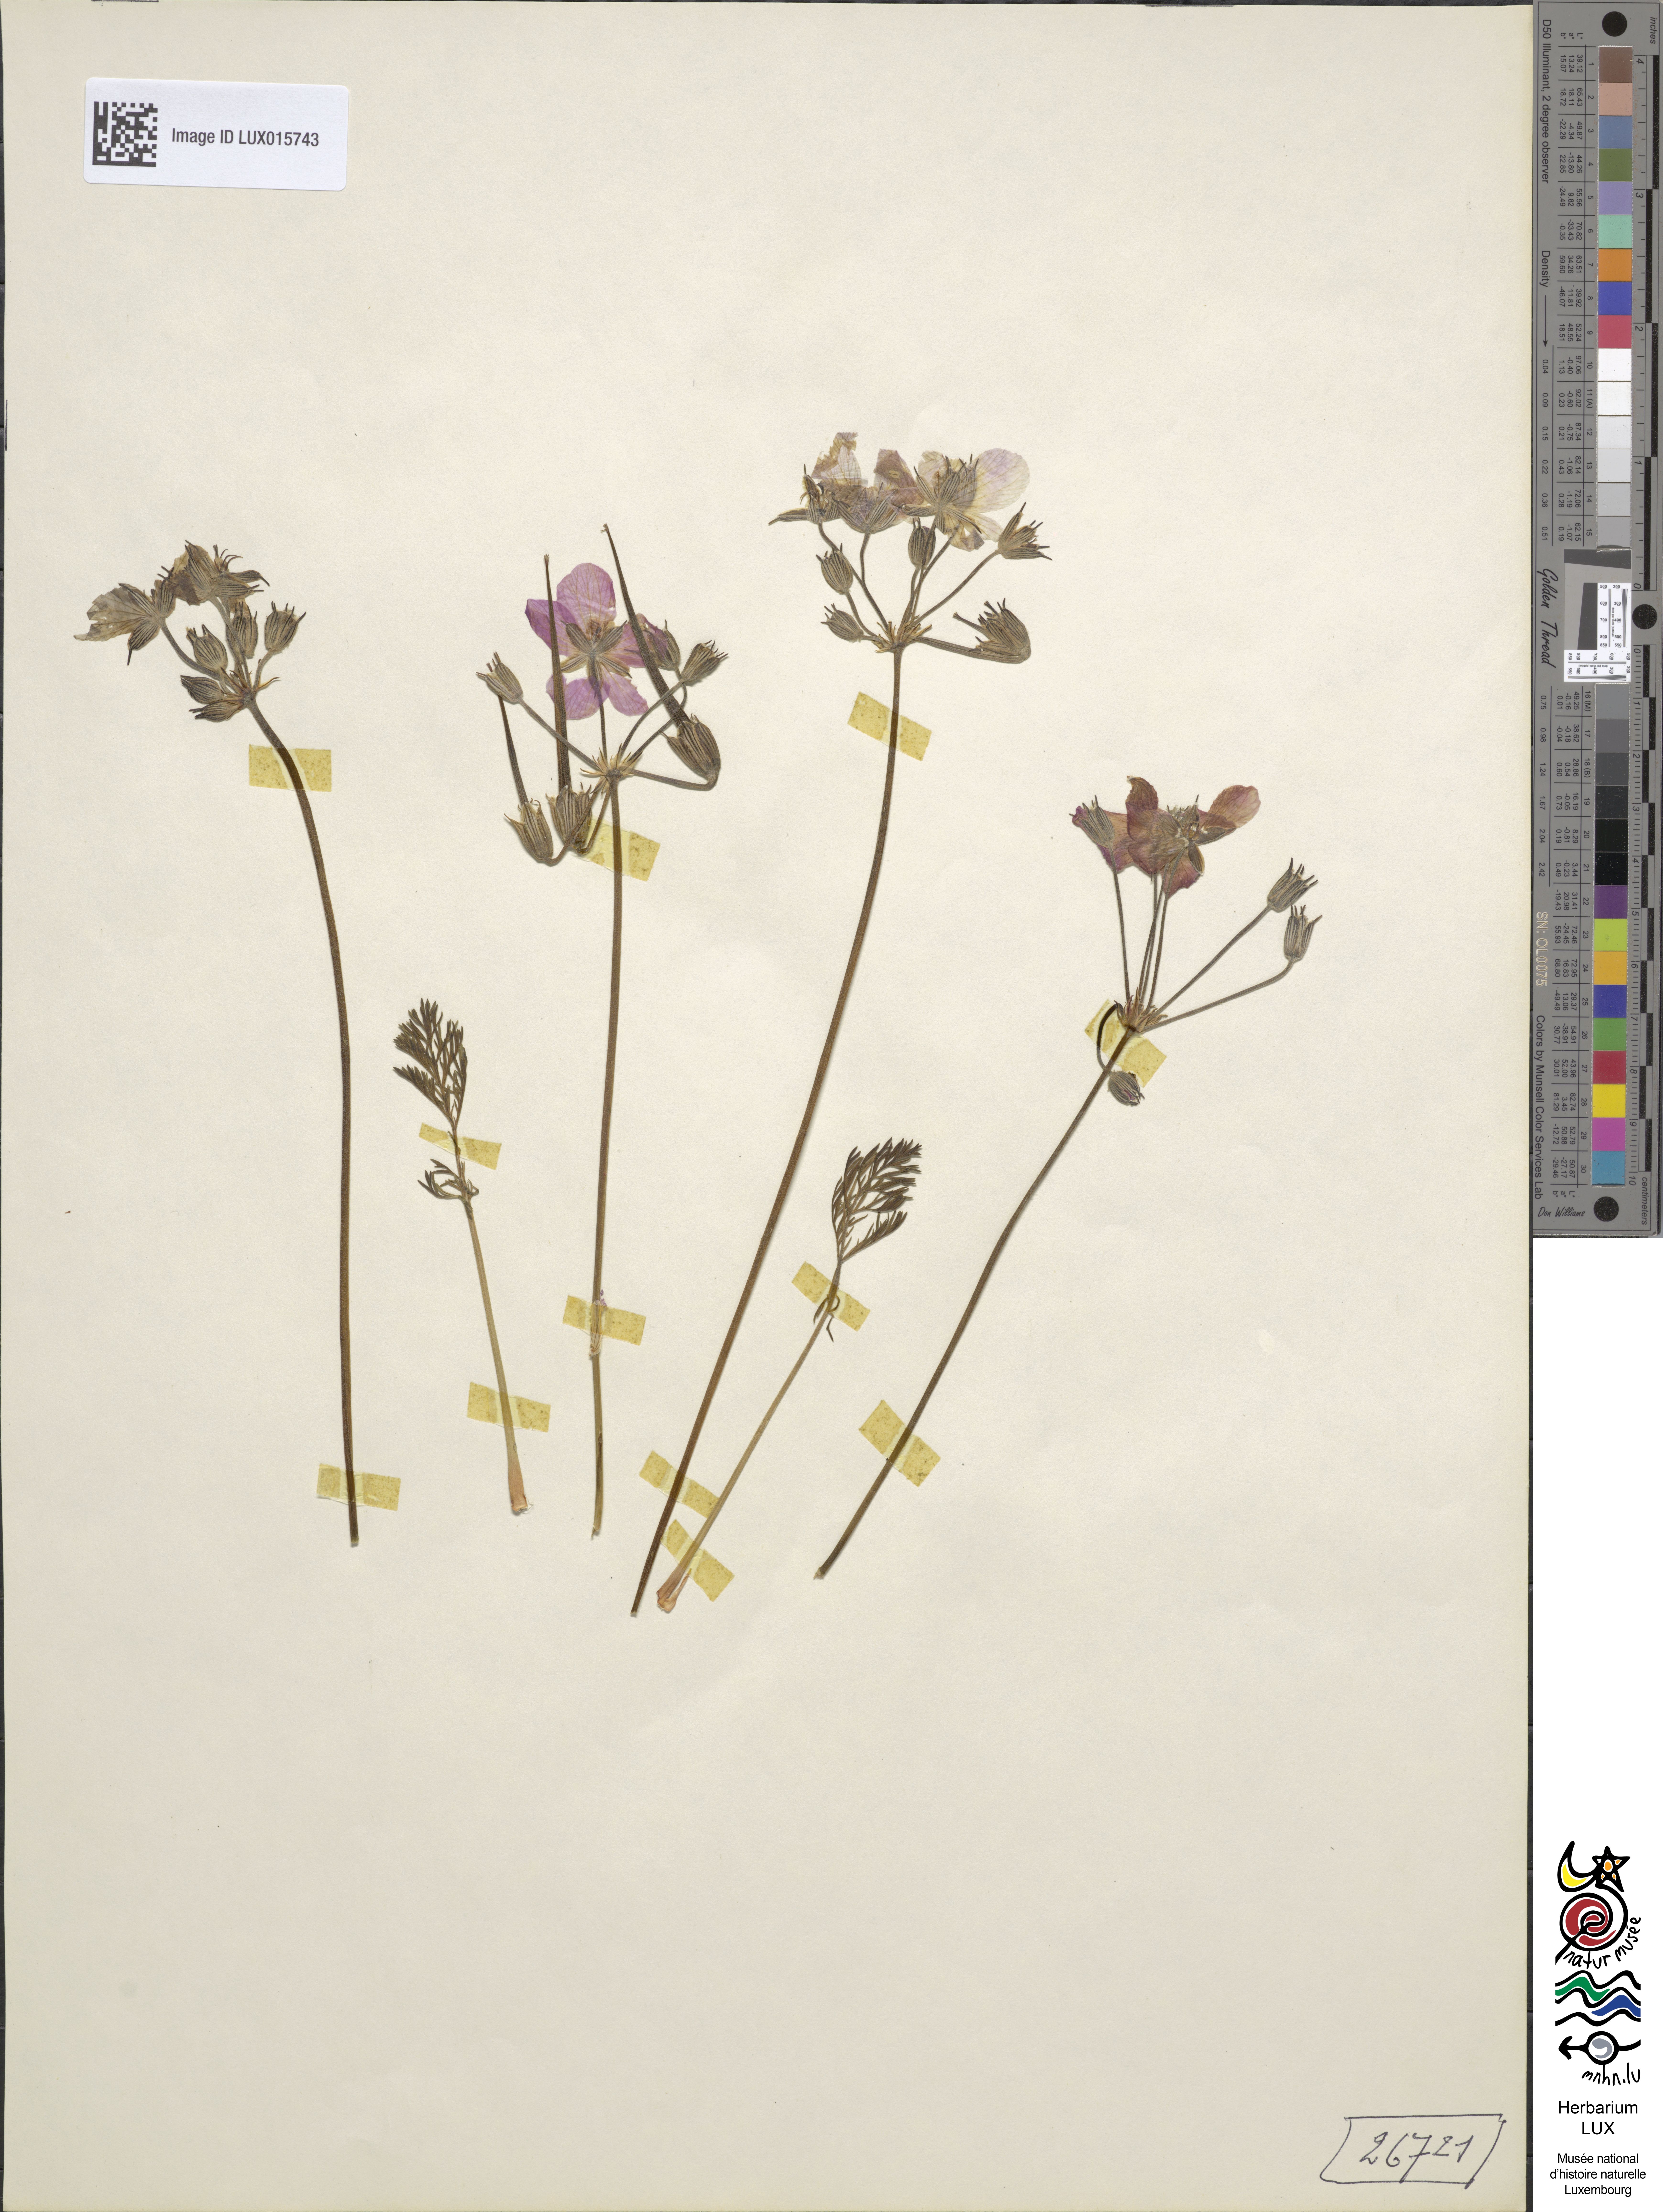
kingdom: Plantae
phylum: Tracheophyta
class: Magnoliopsida
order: Geraniales
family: Geraniaceae
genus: Erodium
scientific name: Erodium rodiei
